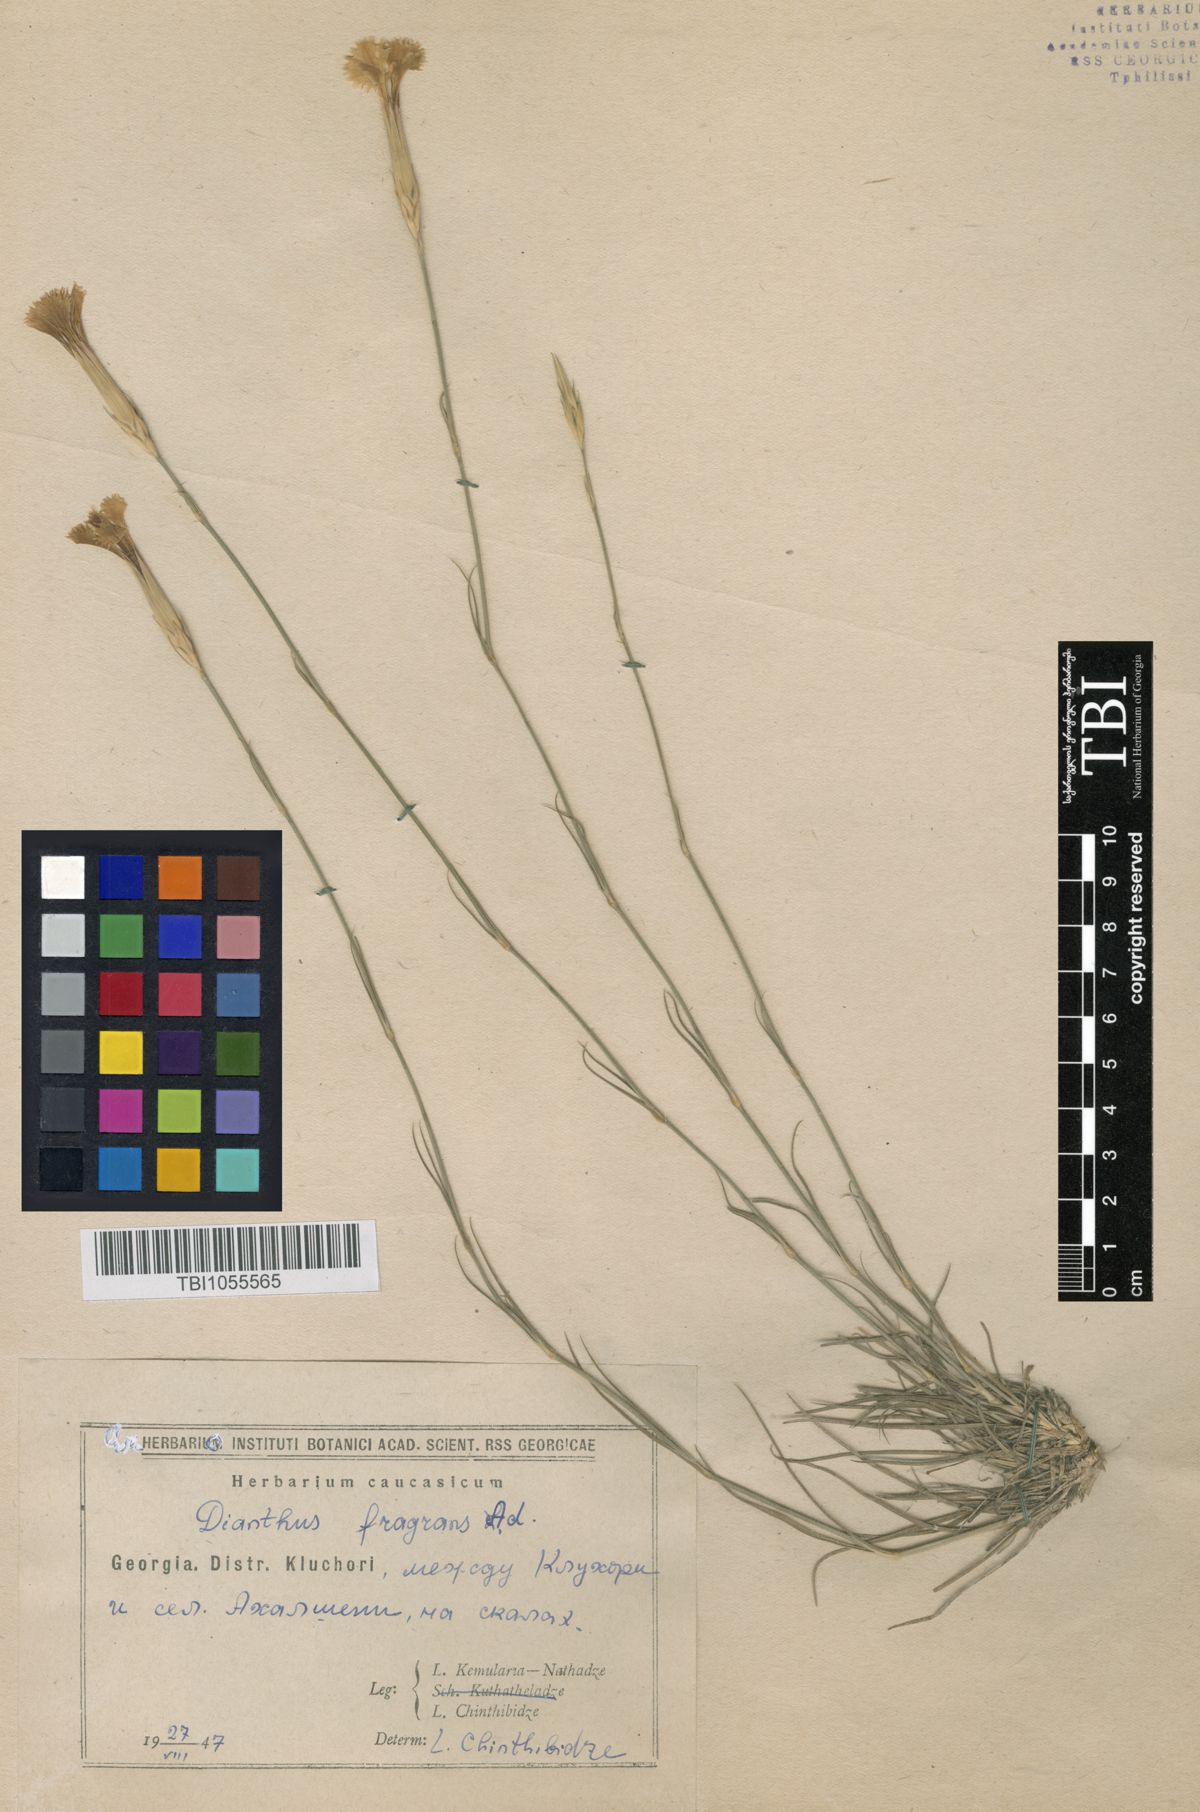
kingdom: Plantae
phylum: Tracheophyta
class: Magnoliopsida
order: Caryophyllales
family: Caryophyllaceae
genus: Dianthus
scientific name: Dianthus
